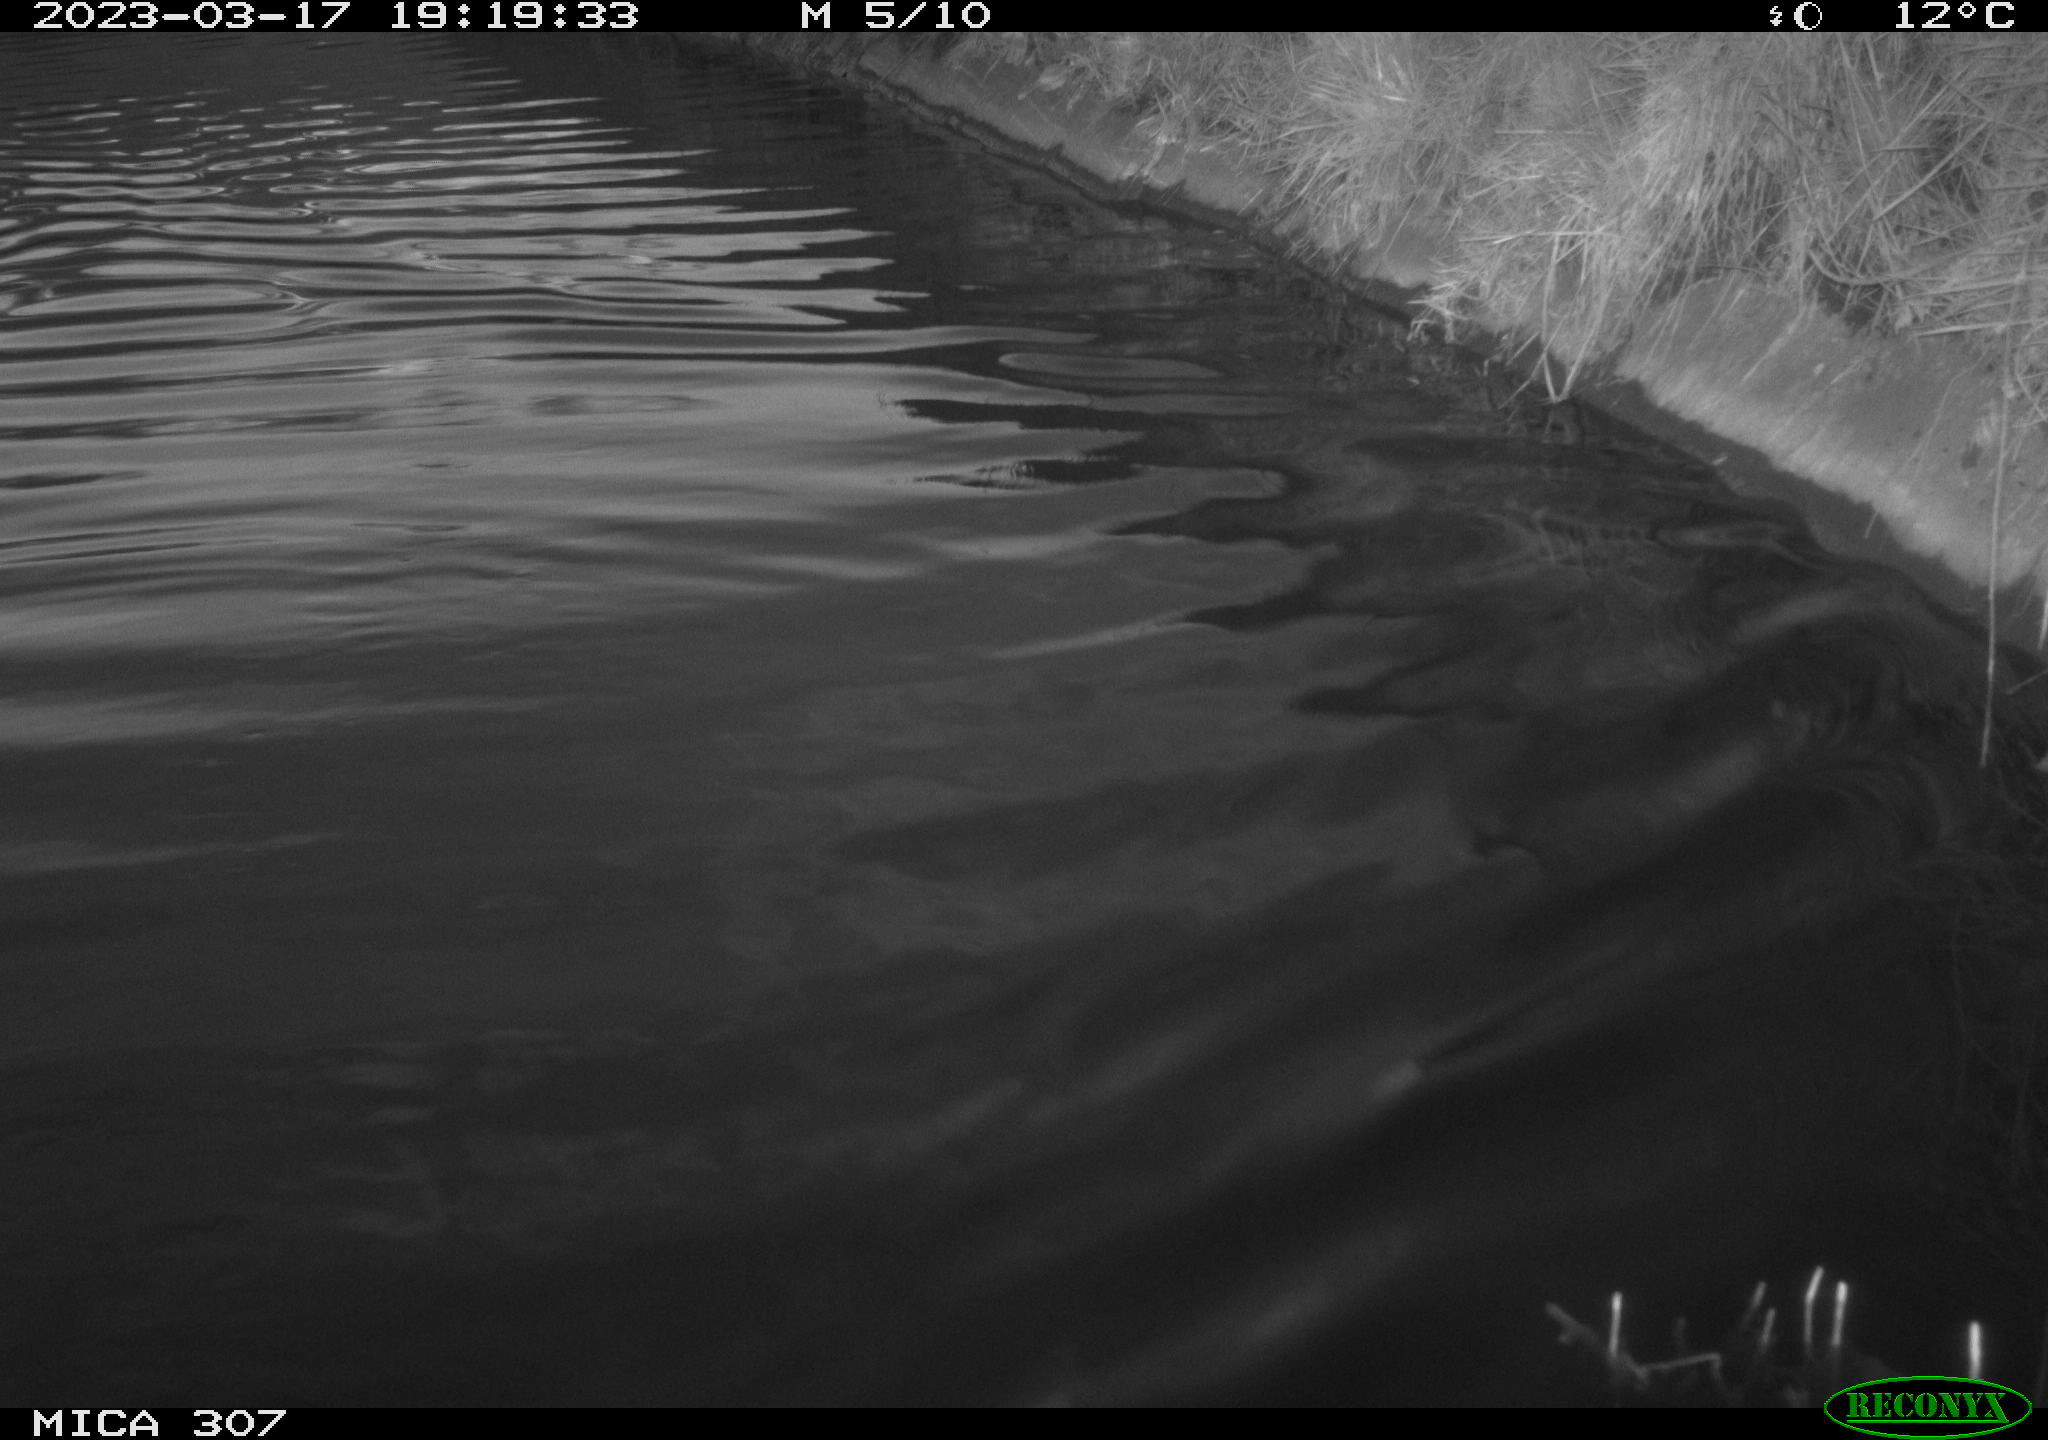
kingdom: Animalia
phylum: Chordata
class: Aves
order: Anseriformes
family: Anatidae
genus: Anas
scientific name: Anas
